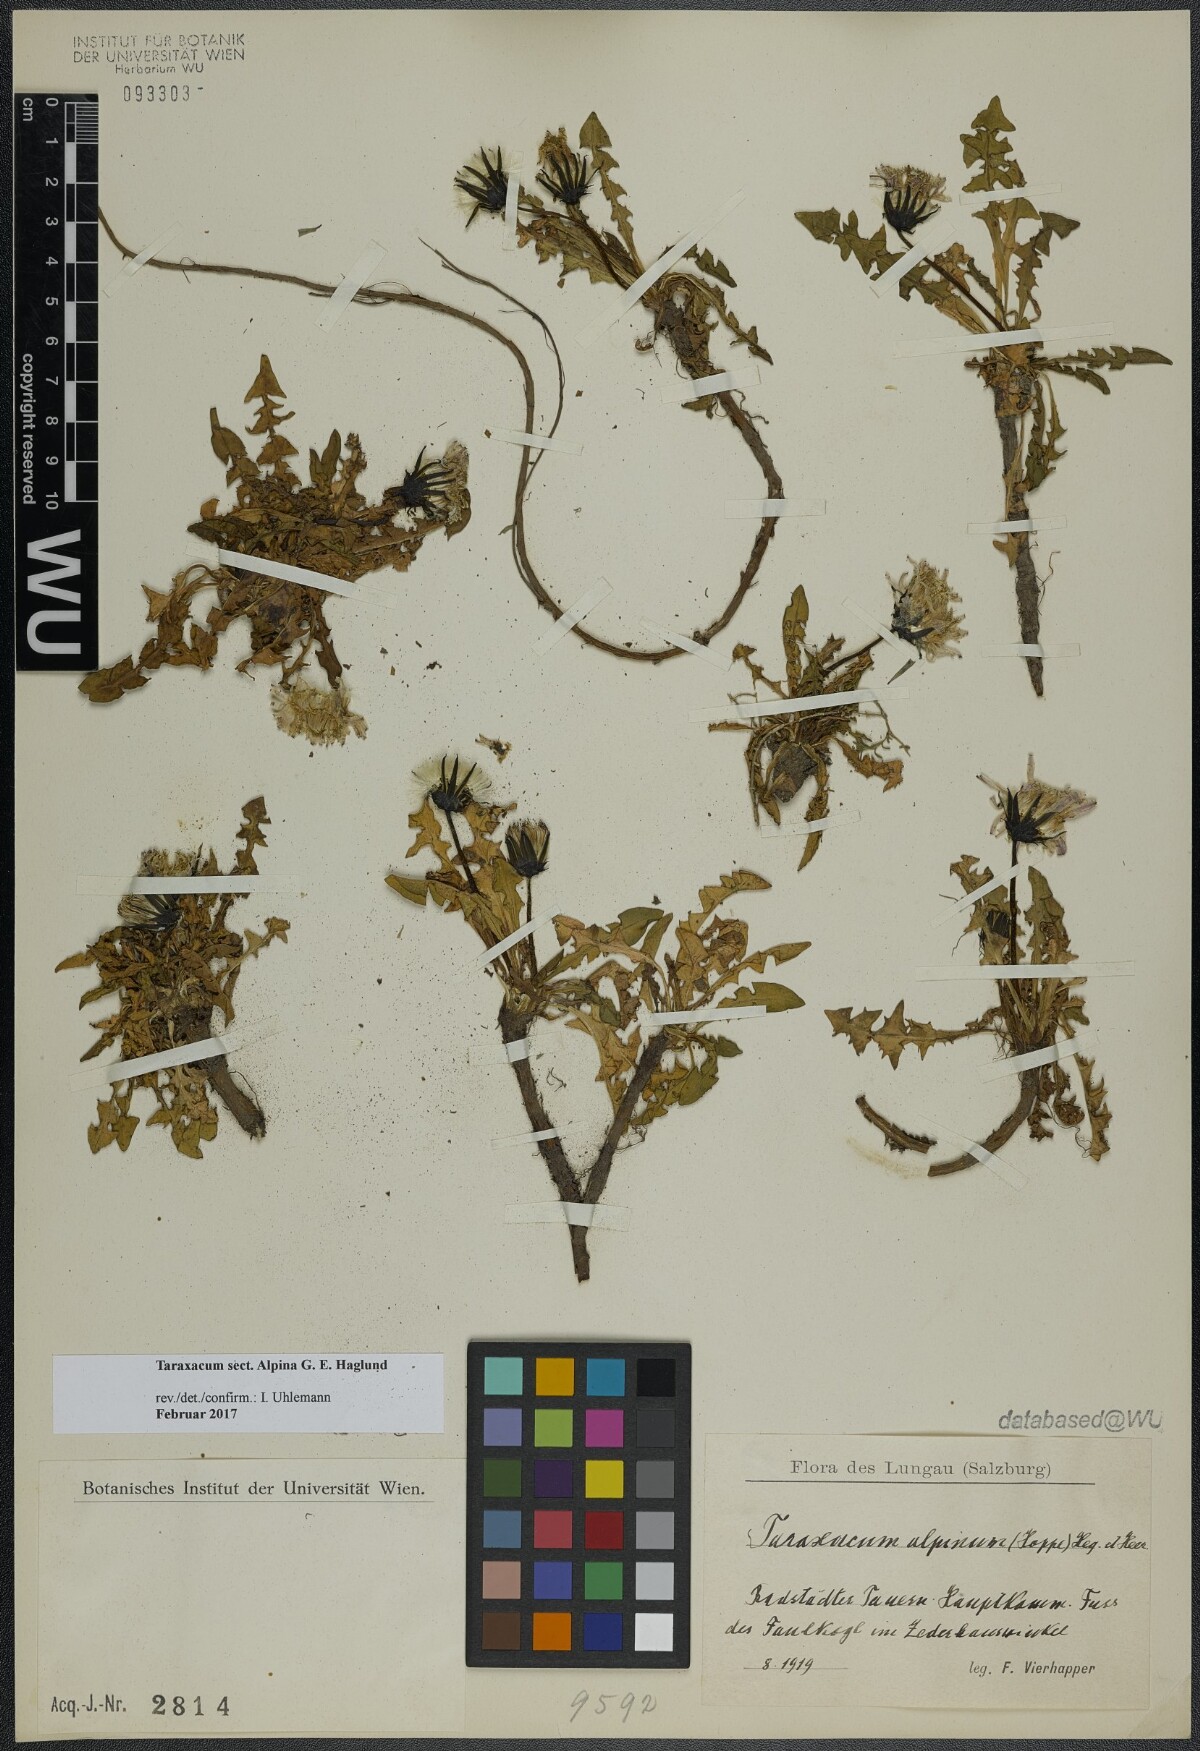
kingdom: Plantae
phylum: Tracheophyta
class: Magnoliopsida
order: Asterales
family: Asteraceae
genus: Taraxacum
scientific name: Taraxacum
